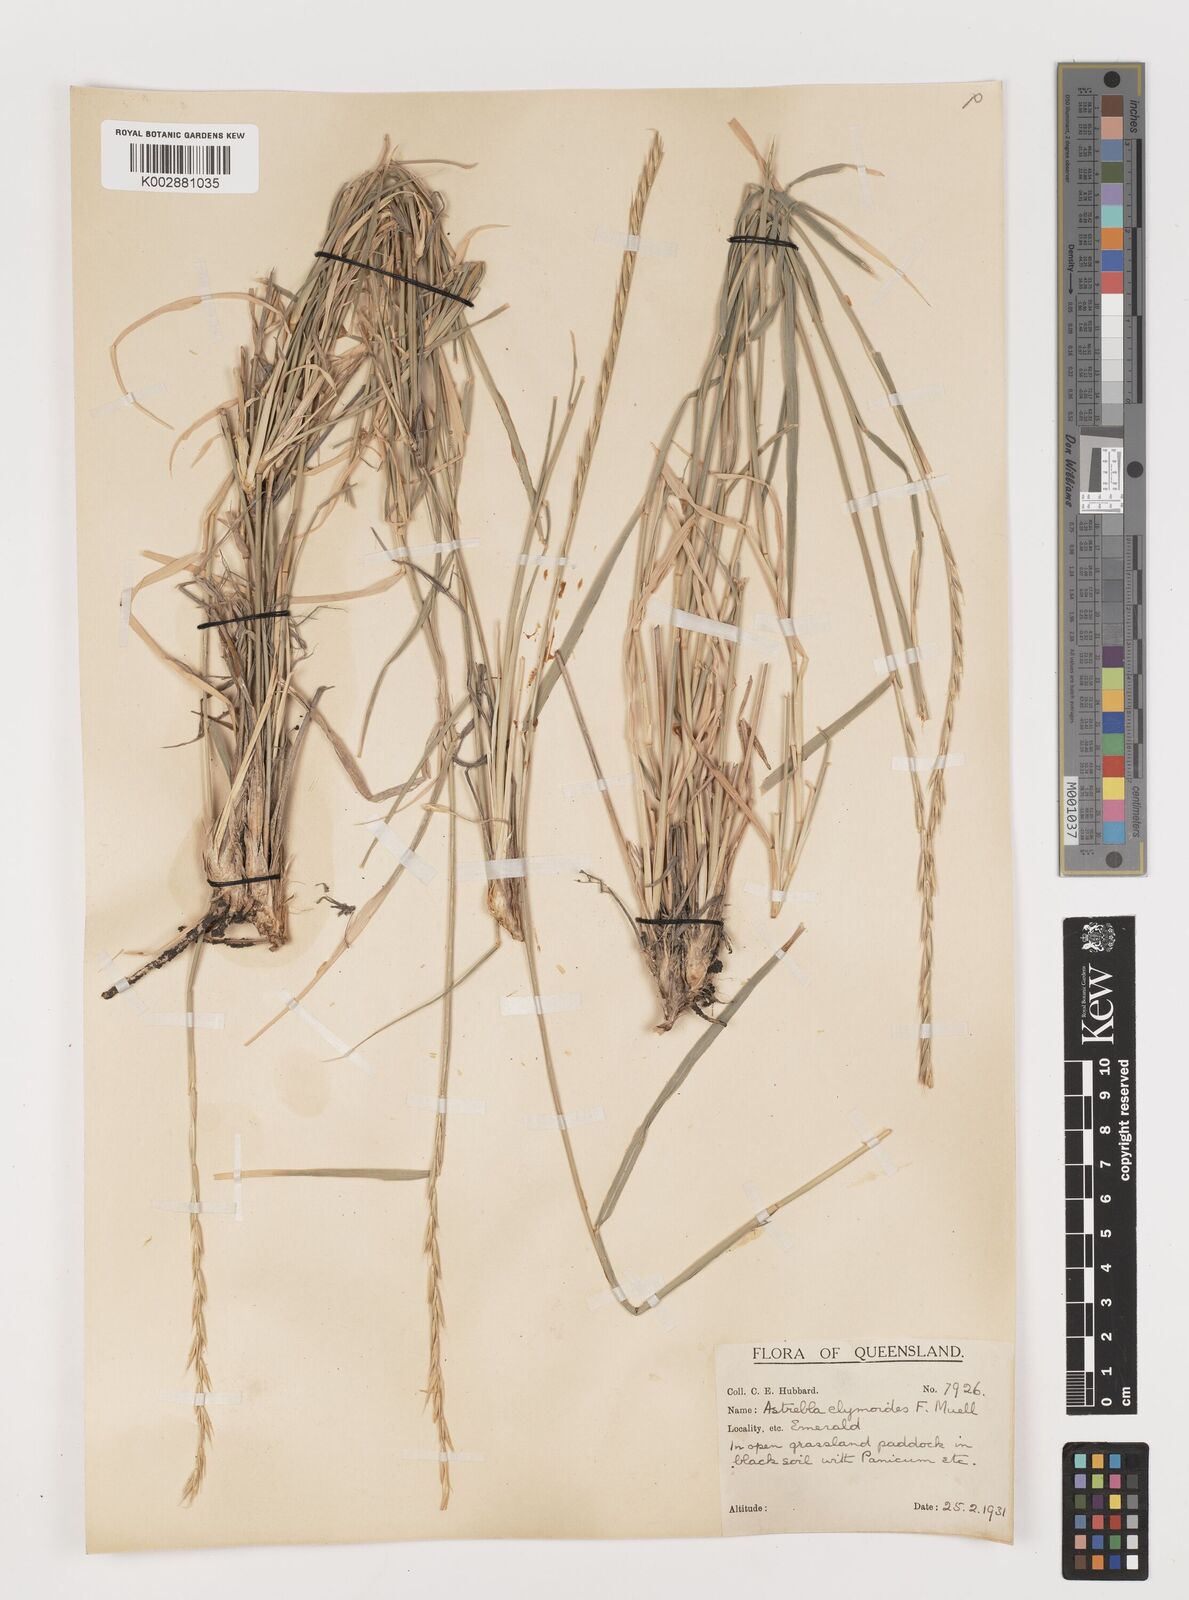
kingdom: Plantae
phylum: Tracheophyta
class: Liliopsida
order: Poales
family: Poaceae
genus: Astrebla
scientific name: Astrebla elymoides
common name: Hoop mitchell grass
